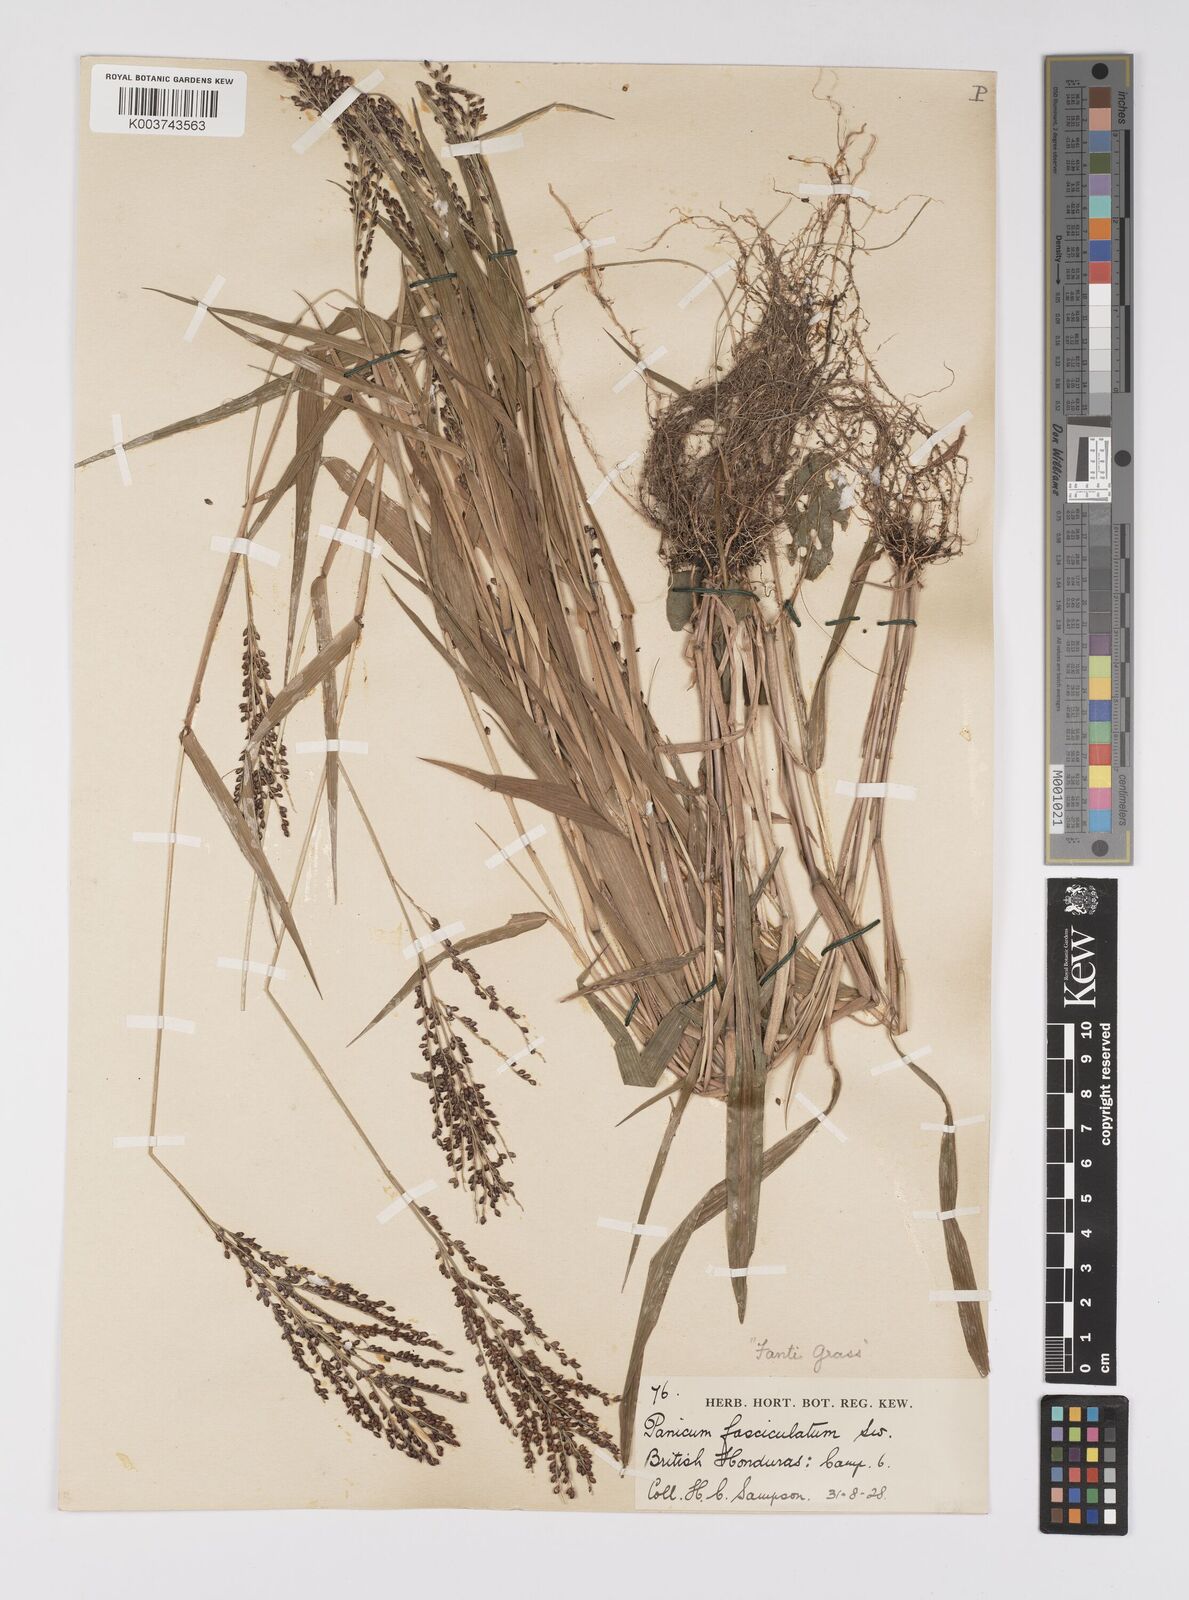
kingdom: Plantae
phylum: Tracheophyta
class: Liliopsida
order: Poales
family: Poaceae
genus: Urochloa
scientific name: Urochloa fusca
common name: Browntop signal grass
